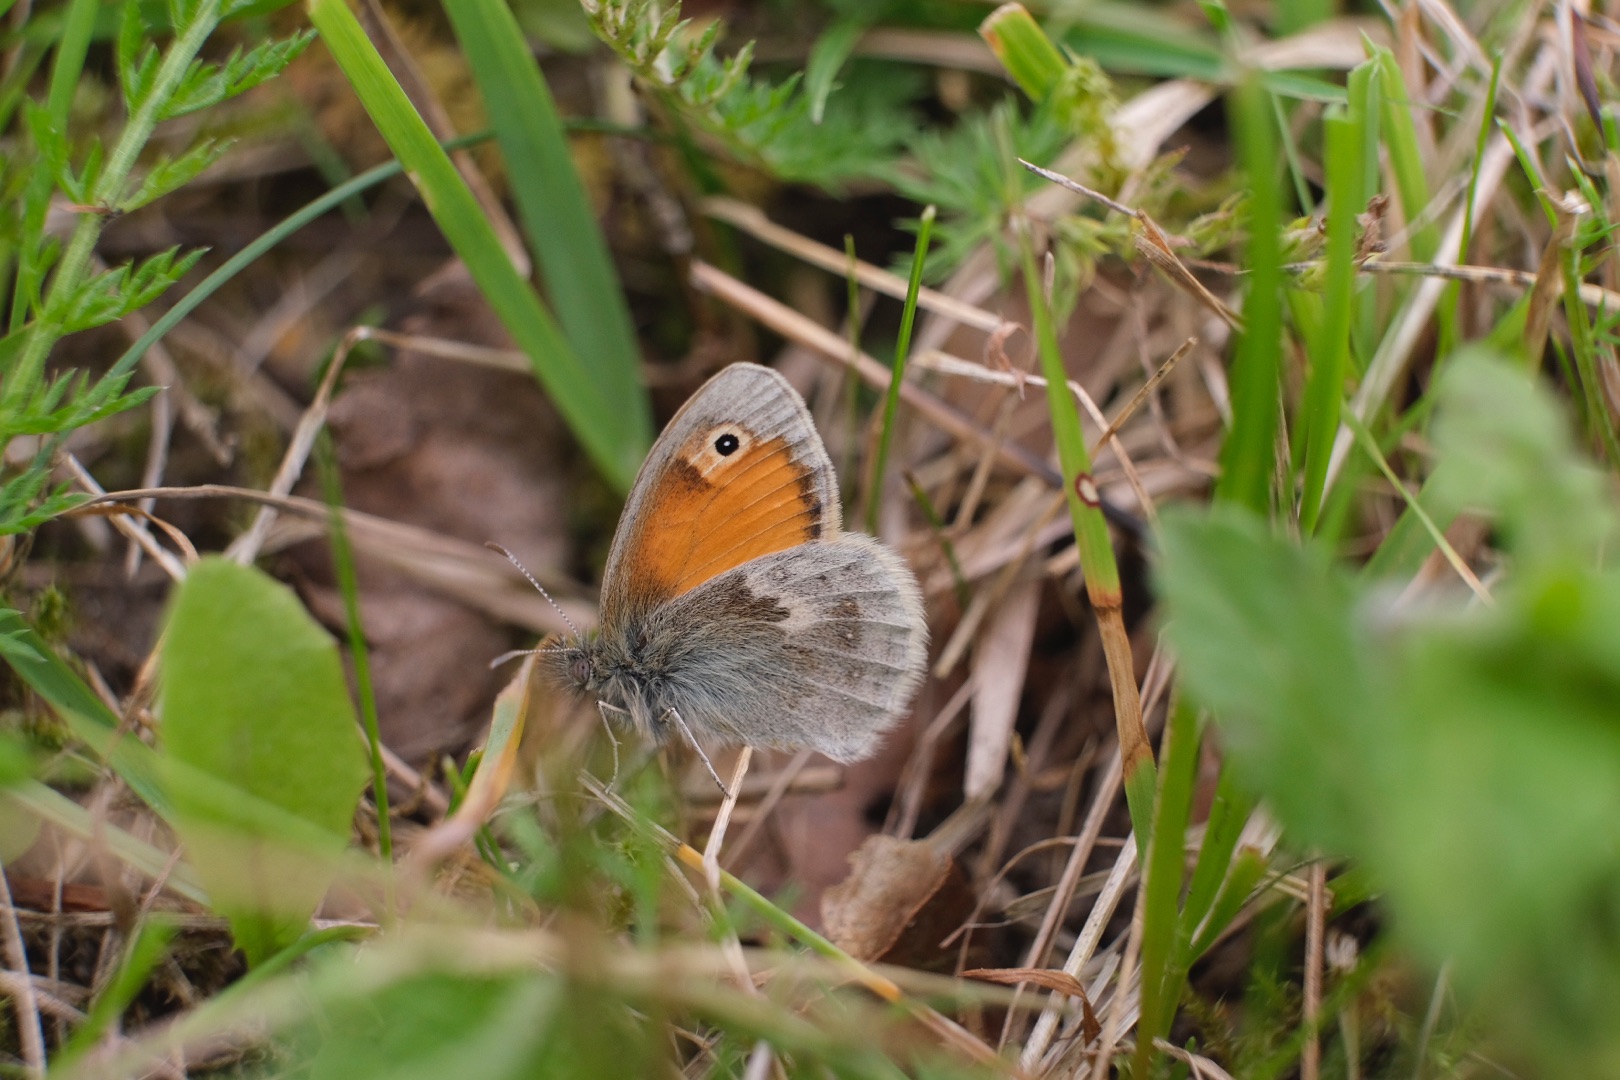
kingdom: Animalia
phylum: Arthropoda
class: Insecta
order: Lepidoptera
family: Nymphalidae
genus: Coenonympha
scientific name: Coenonympha pamphilus
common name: Okkergul randøje
